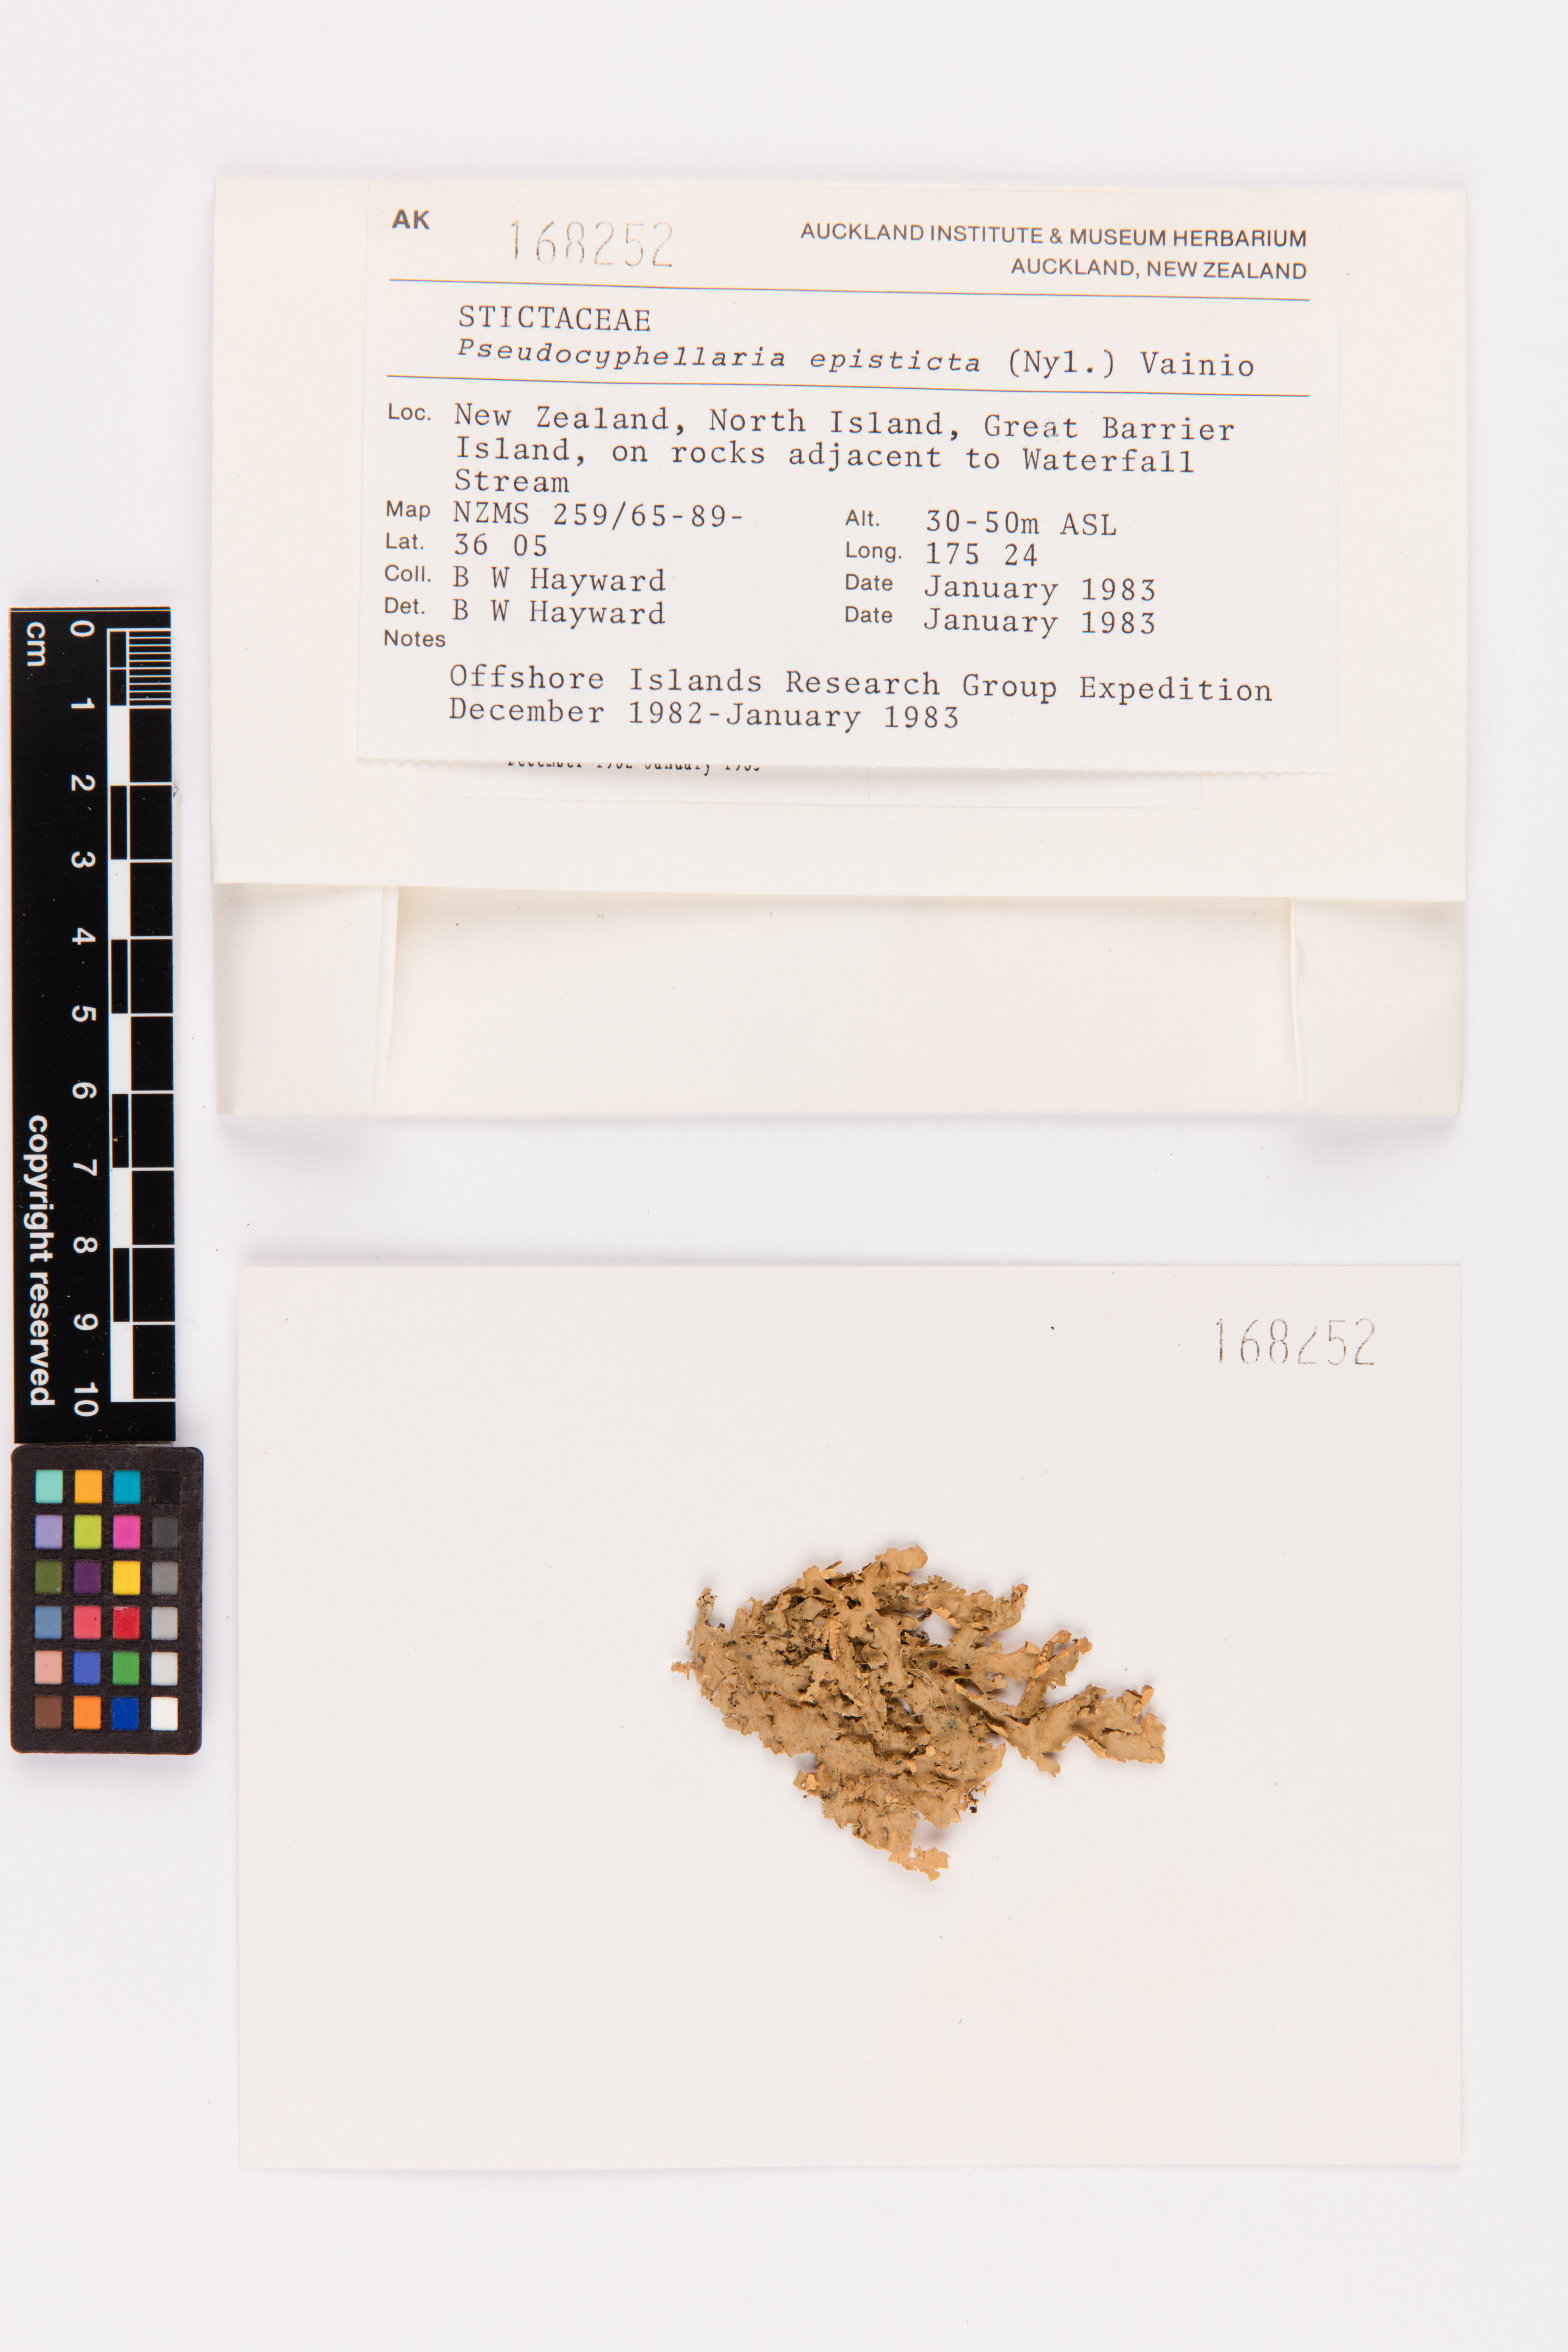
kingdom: Fungi
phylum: Ascomycota
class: Lecanoromycetes
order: Peltigerales
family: Lobariaceae
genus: Pseudocyphellaria
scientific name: Pseudocyphellaria episticta
